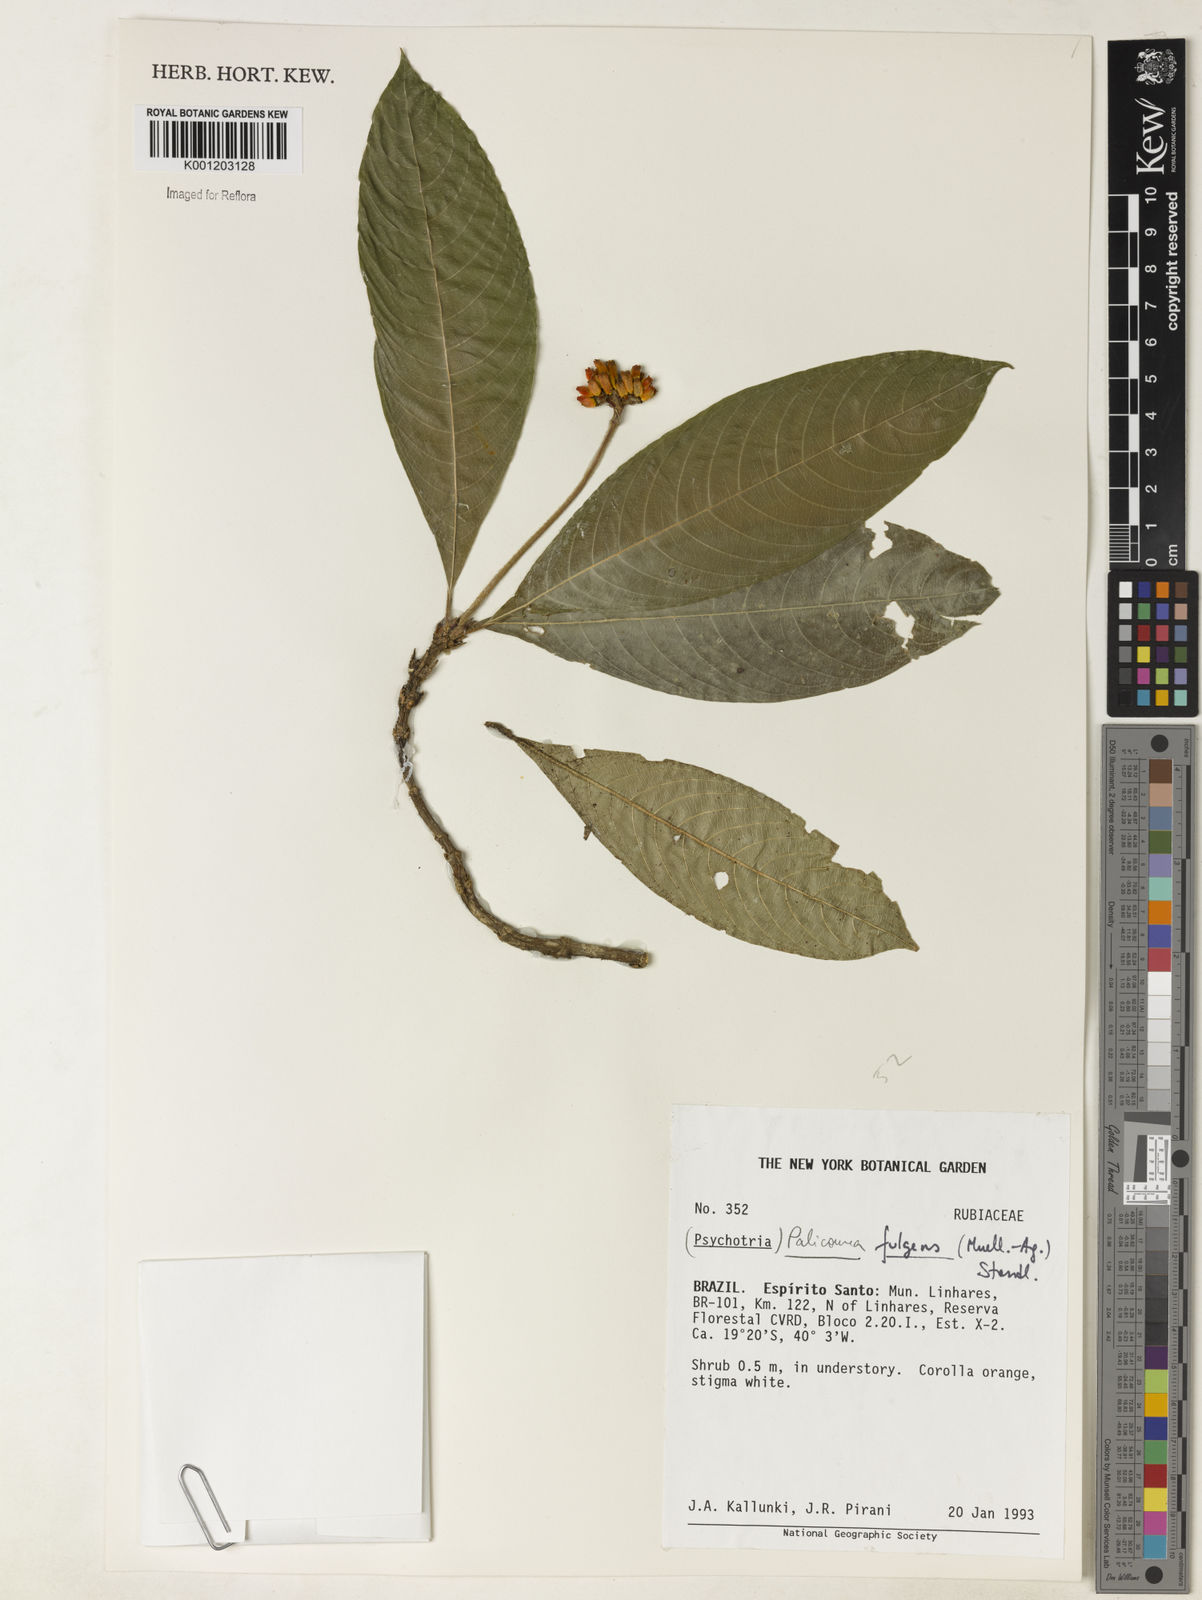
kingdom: Plantae
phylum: Tracheophyta
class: Magnoliopsida
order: Gentianales
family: Rubiaceae
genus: Palicourea
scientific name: Palicourea
